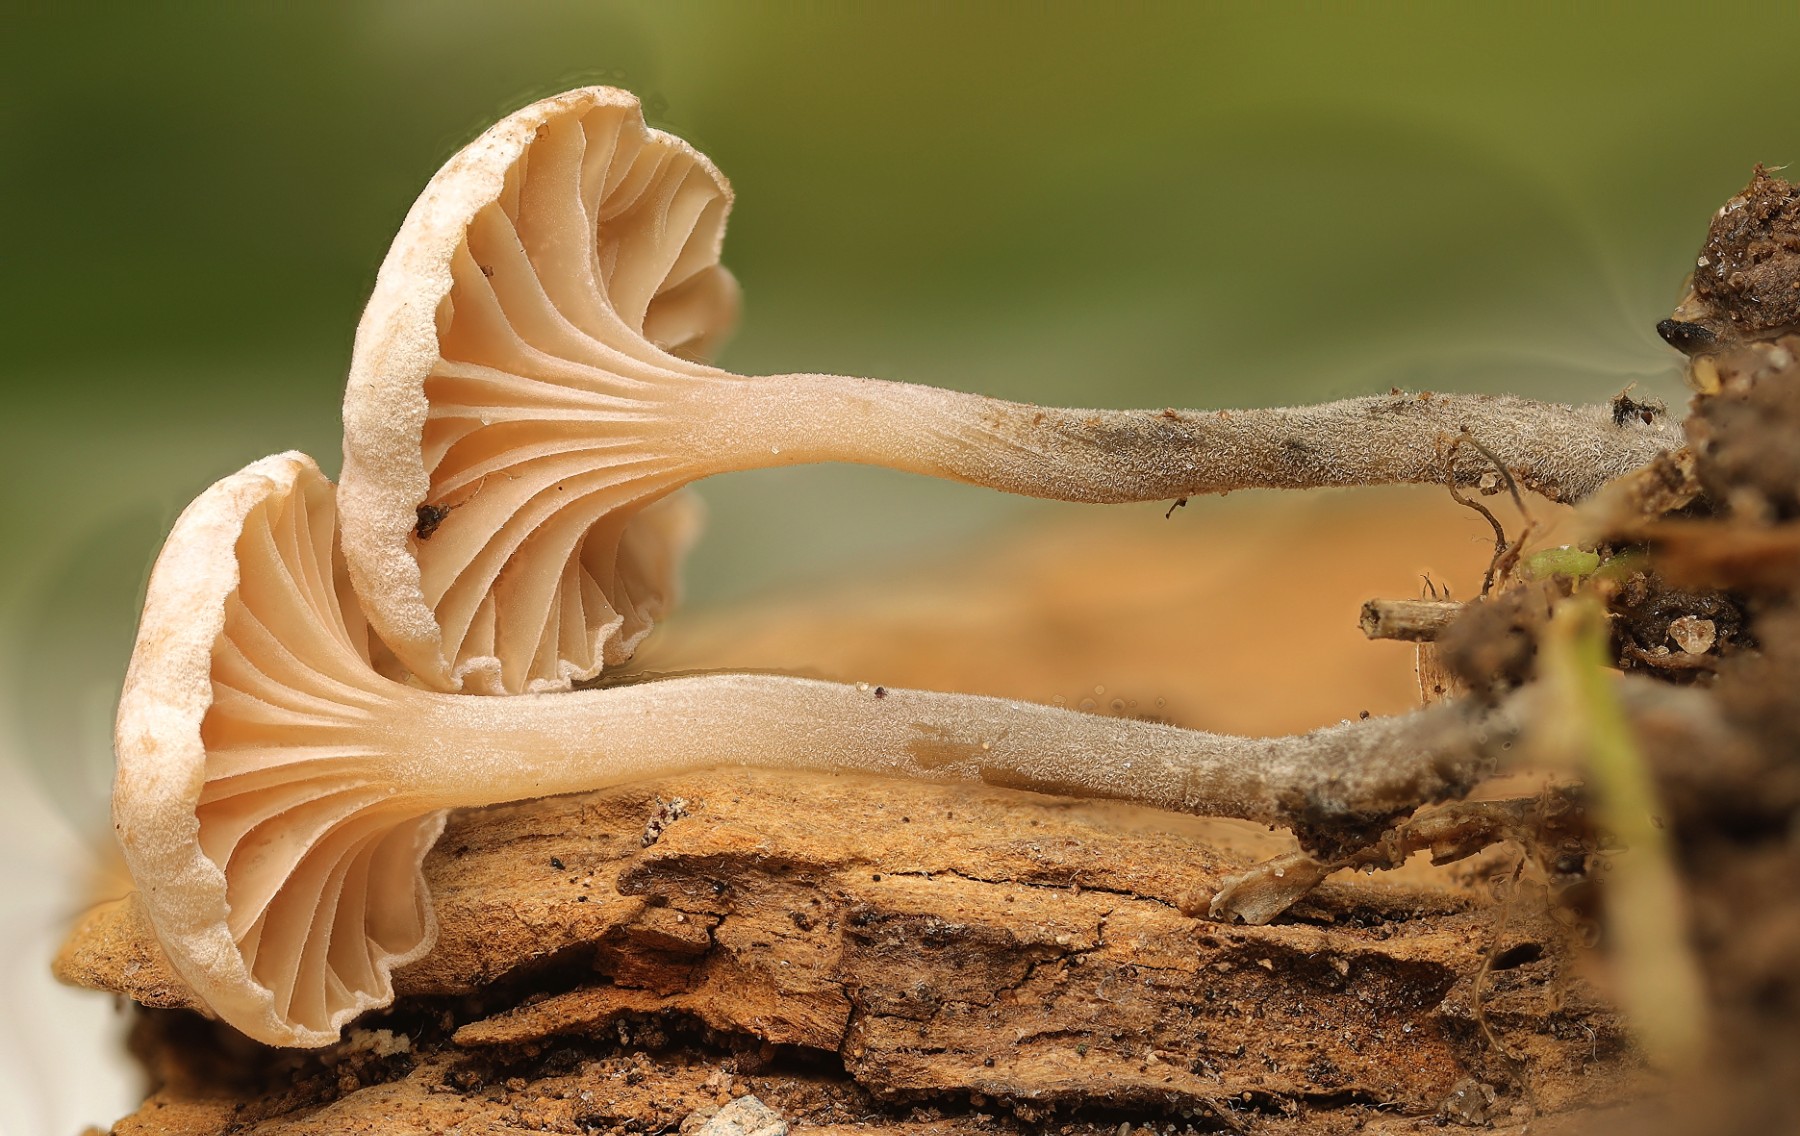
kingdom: Fungi
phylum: Basidiomycota
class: Agaricomycetes
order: Agaricales
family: Omphalotaceae
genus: Marasmiellus
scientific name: Marasmiellus tricolor
